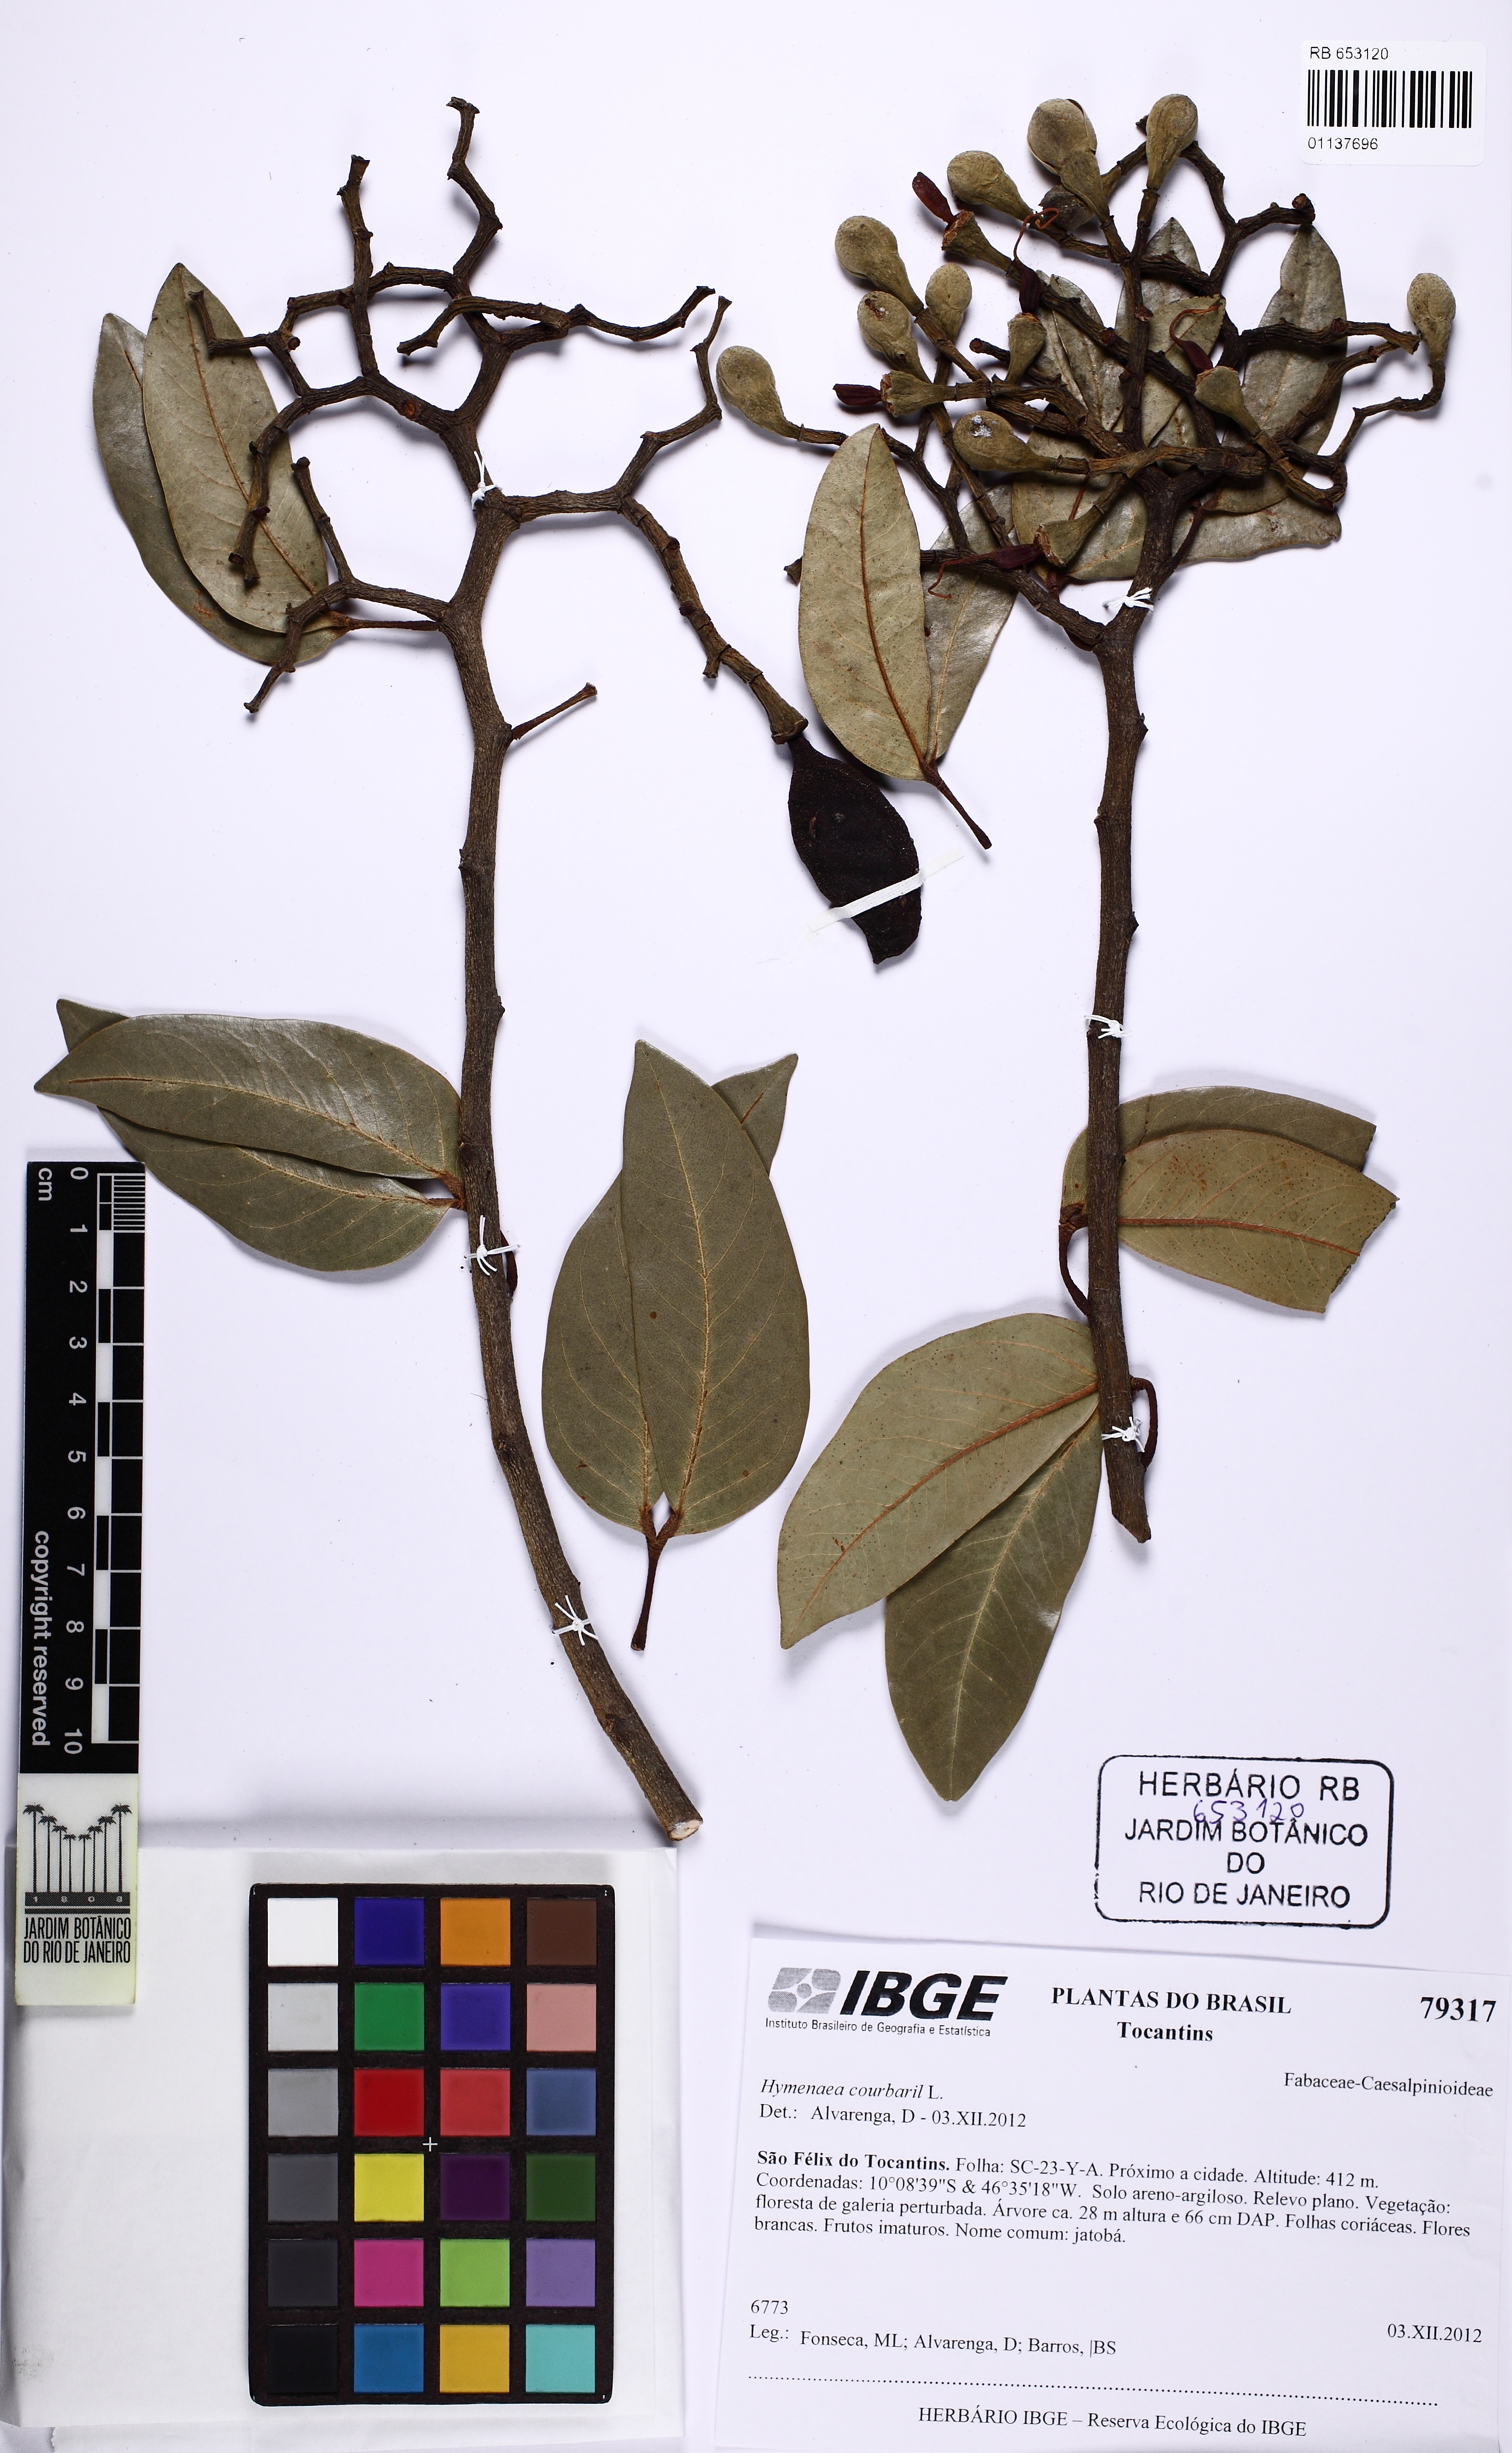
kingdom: Plantae
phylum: Tracheophyta
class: Magnoliopsida
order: Fabales
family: Fabaceae
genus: Hymenaea
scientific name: Hymenaea courbaril
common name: Brazilian copal
